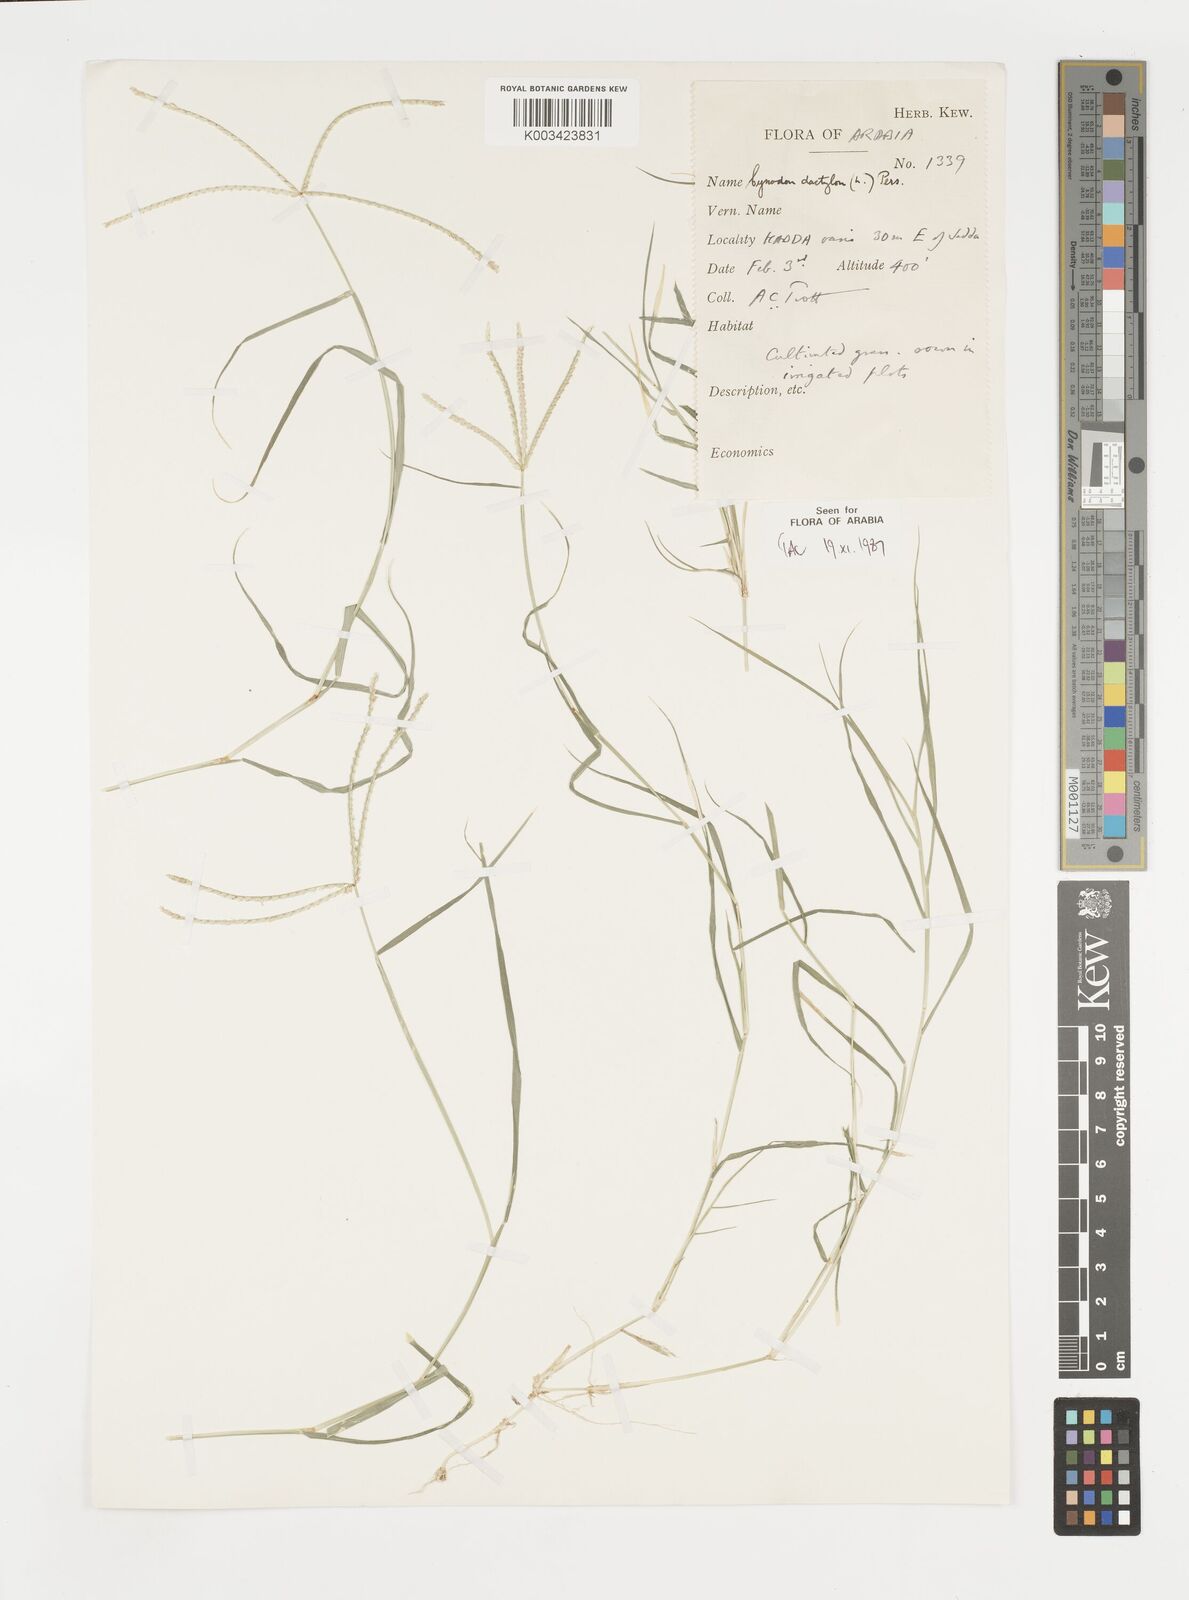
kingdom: Plantae
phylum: Tracheophyta
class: Liliopsida
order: Poales
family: Poaceae
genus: Cynodon
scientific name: Cynodon dactylon
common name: Bermuda grass
